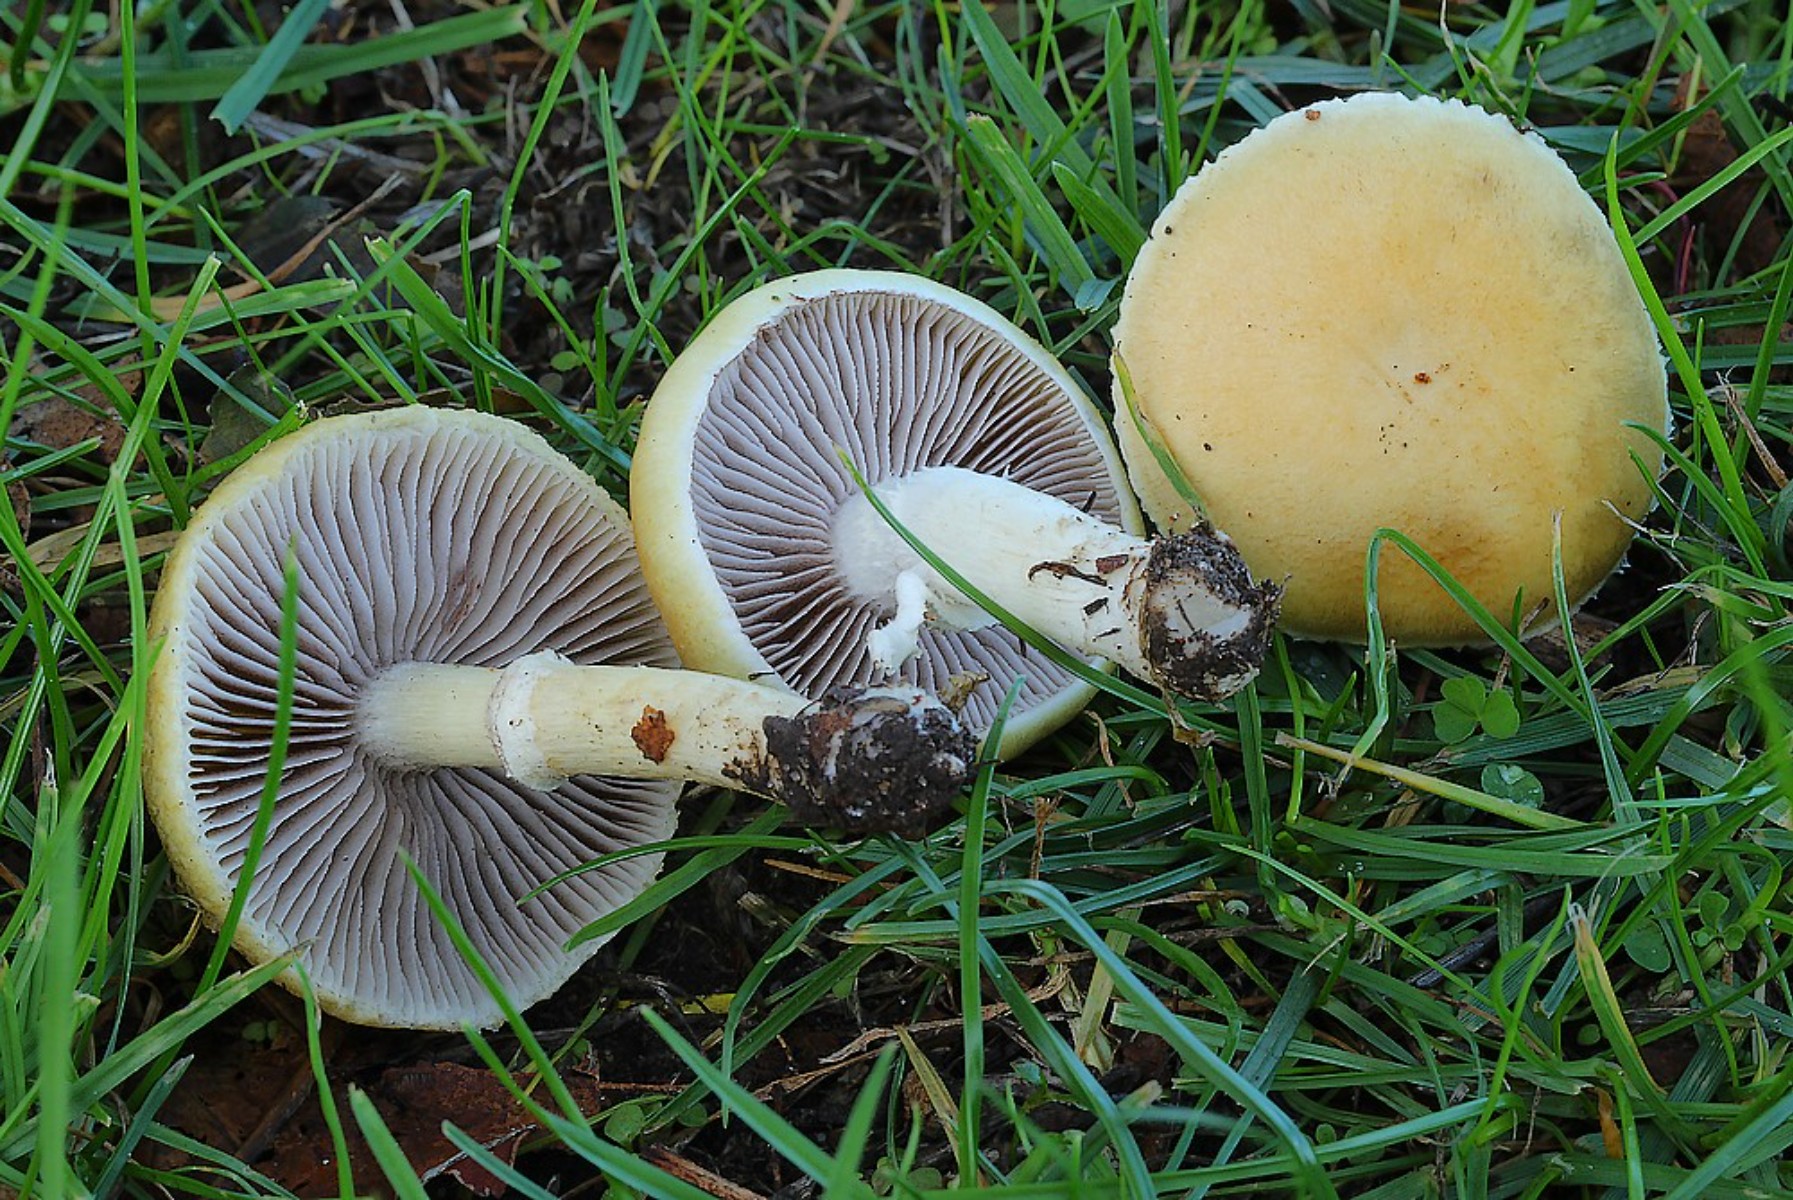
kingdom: Fungi
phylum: Basidiomycota
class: Agaricomycetes
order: Agaricales
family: Hymenogastraceae
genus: Psilocybe
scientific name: Psilocybe coronilla
